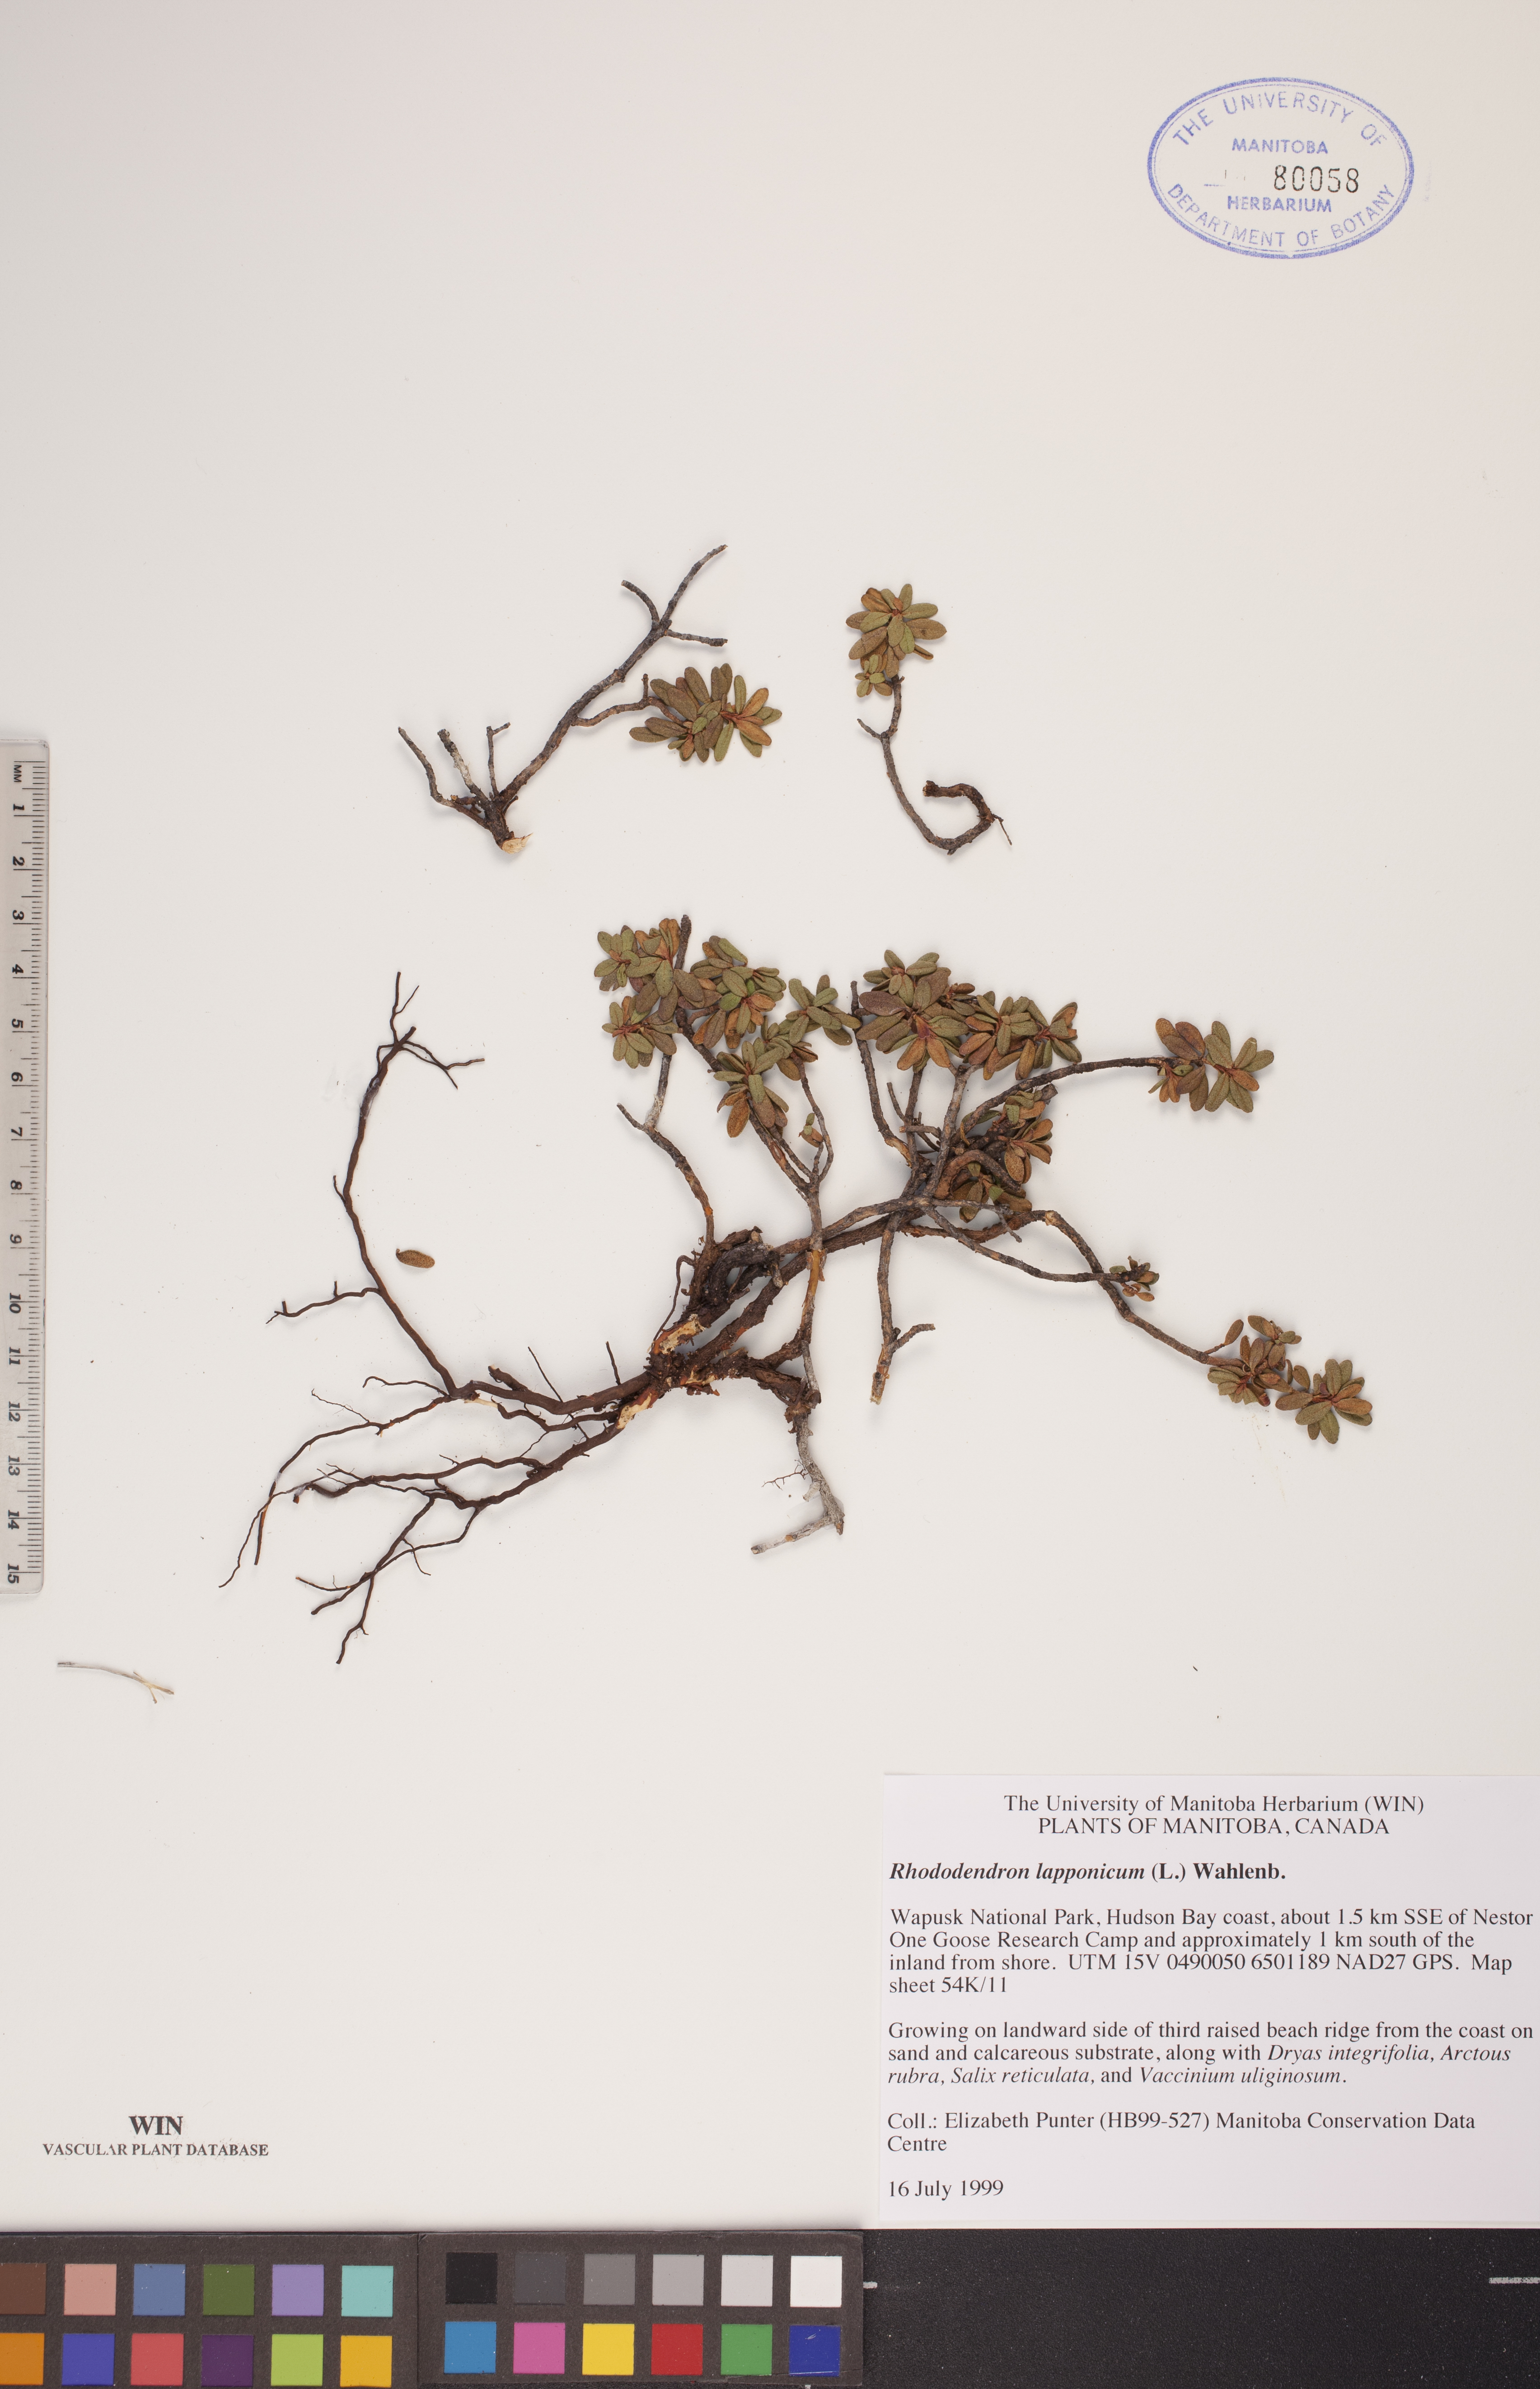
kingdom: Plantae
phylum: Tracheophyta
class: Magnoliopsida
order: Ericales
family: Ericaceae
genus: Rhododendron
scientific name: Rhododendron lapponicum
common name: Lapland rhododendron
